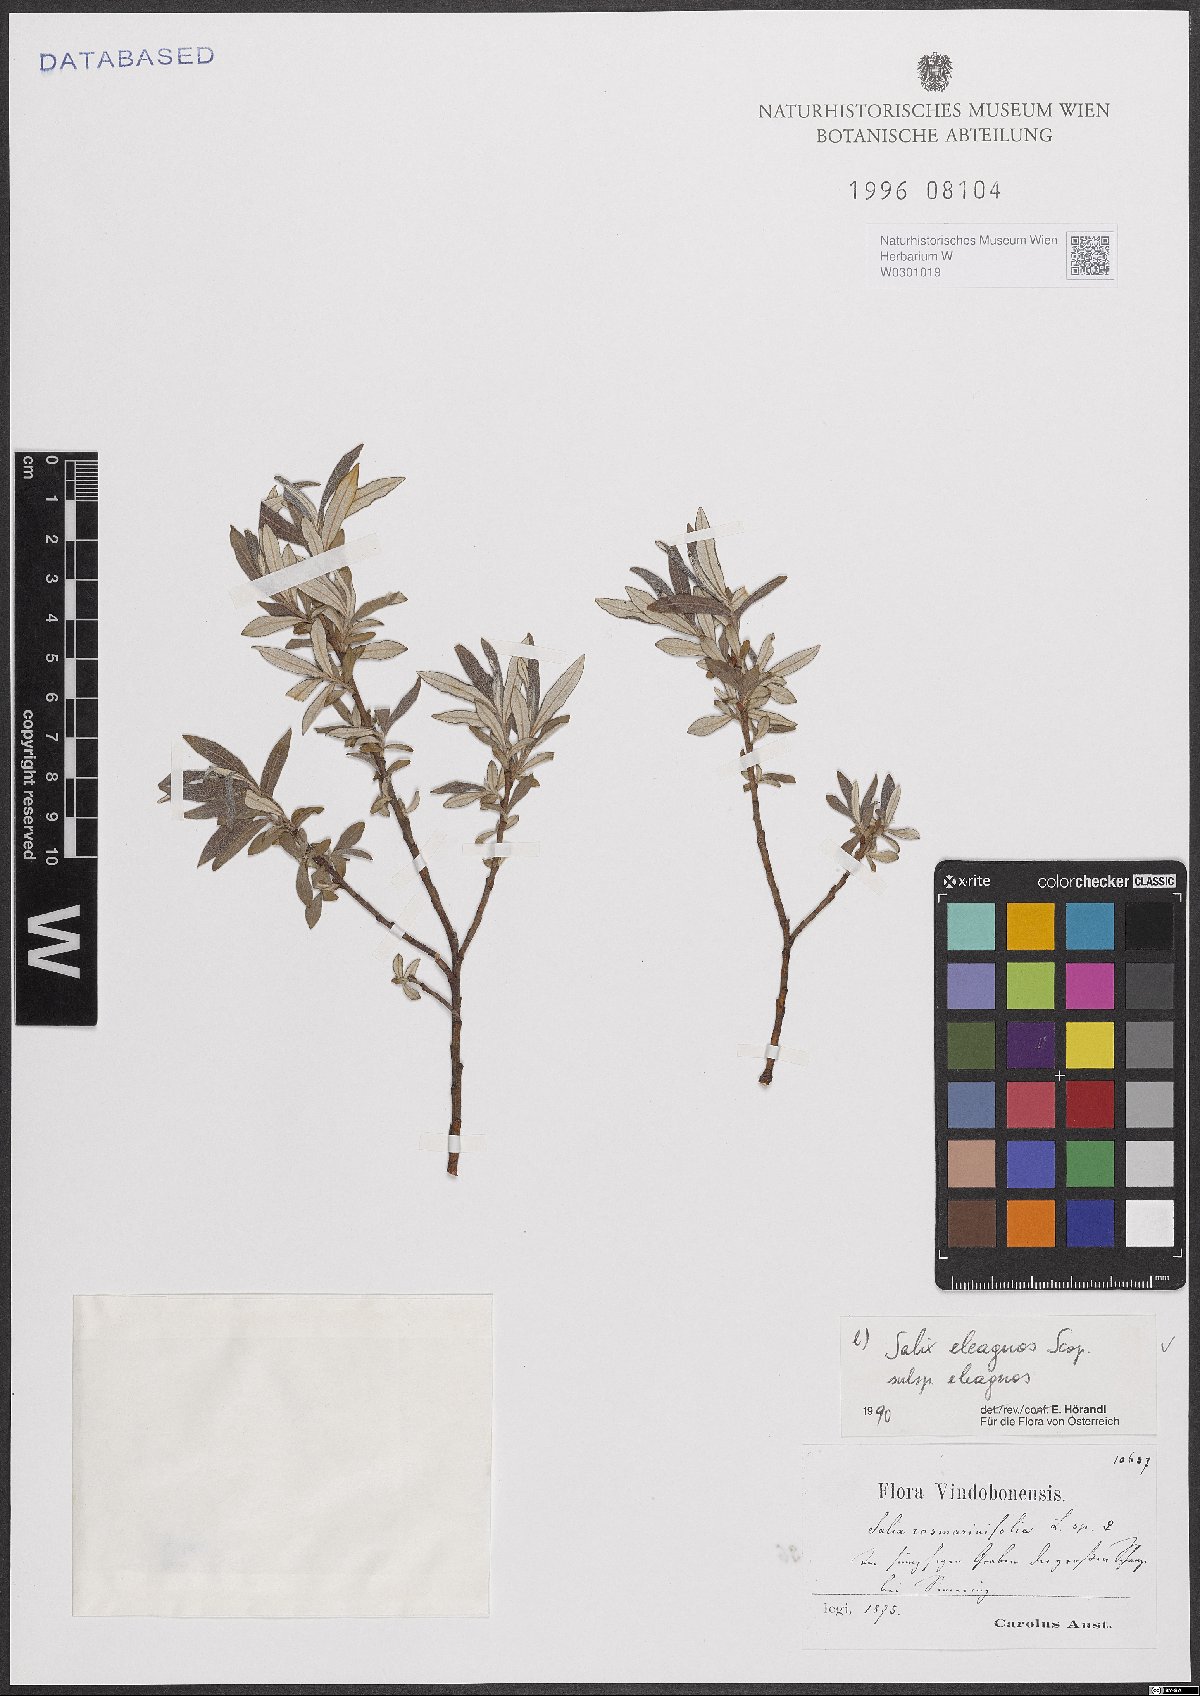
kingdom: Plantae
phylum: Tracheophyta
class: Magnoliopsida
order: Malpighiales
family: Salicaceae
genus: Salix
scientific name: Salix eleagnos
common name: Elaeagnus willow
